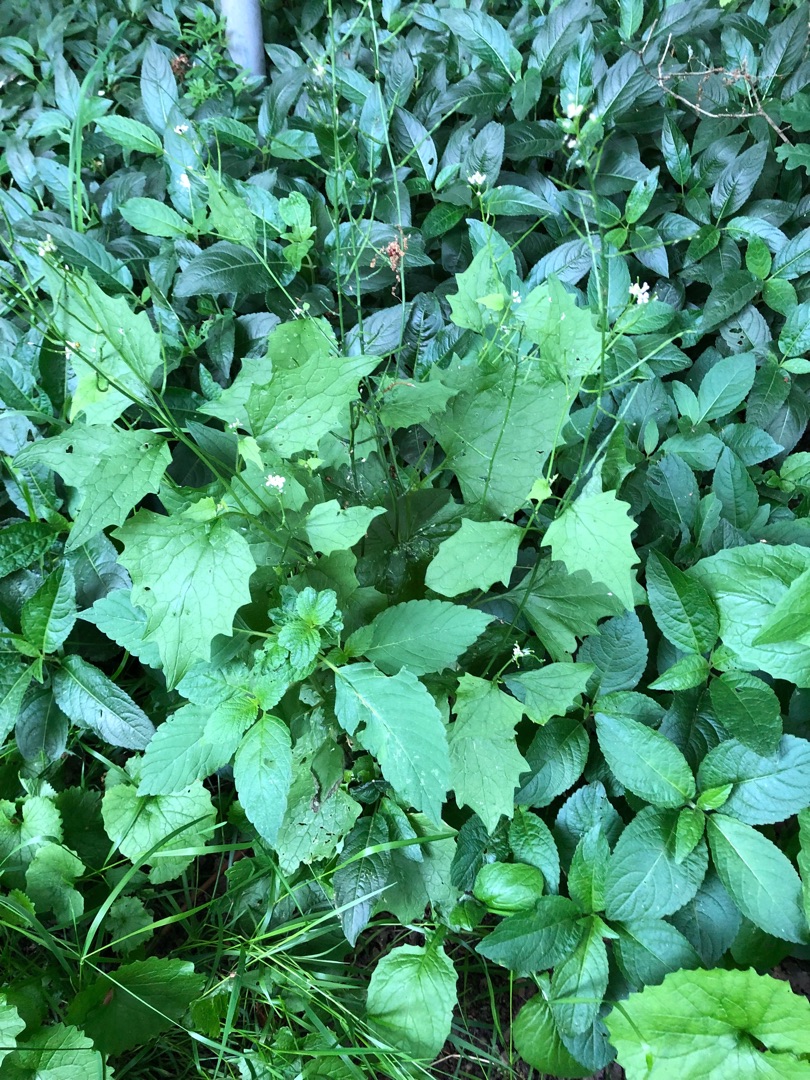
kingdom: Plantae
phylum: Tracheophyta
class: Magnoliopsida
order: Brassicales
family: Brassicaceae
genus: Alliaria
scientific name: Alliaria petiolata
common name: Løgkarse
